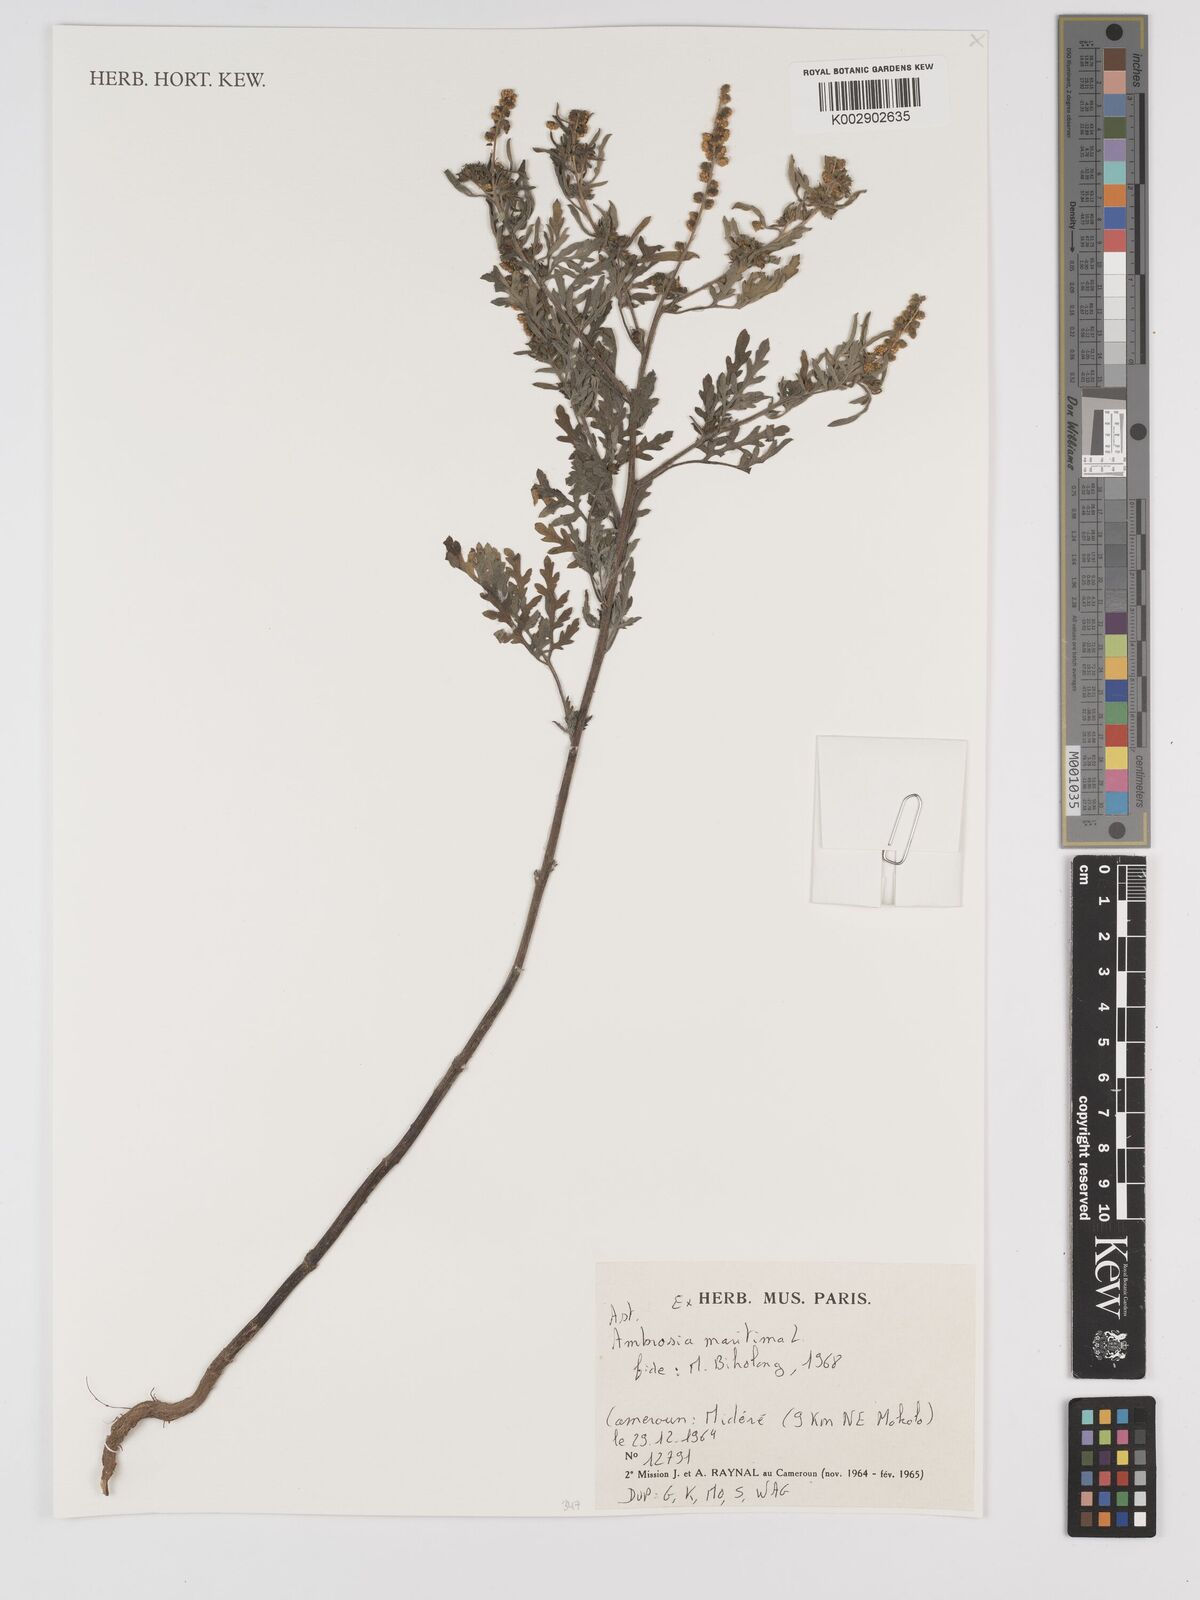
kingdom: Plantae
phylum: Tracheophyta
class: Magnoliopsida
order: Asterales
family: Asteraceae
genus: Ambrosia
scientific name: Ambrosia maritima
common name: Sea ambrosia
